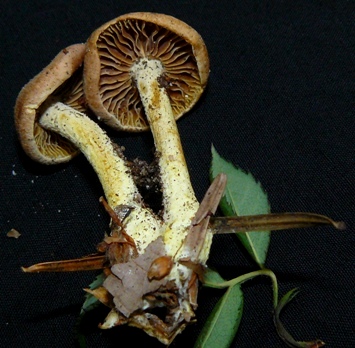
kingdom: Fungi
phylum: Basidiomycota
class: Agaricomycetes
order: Agaricales
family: Omphalotaceae
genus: Collybiopsis
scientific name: Collybiopsis peronata
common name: bestøvlet fladhat
